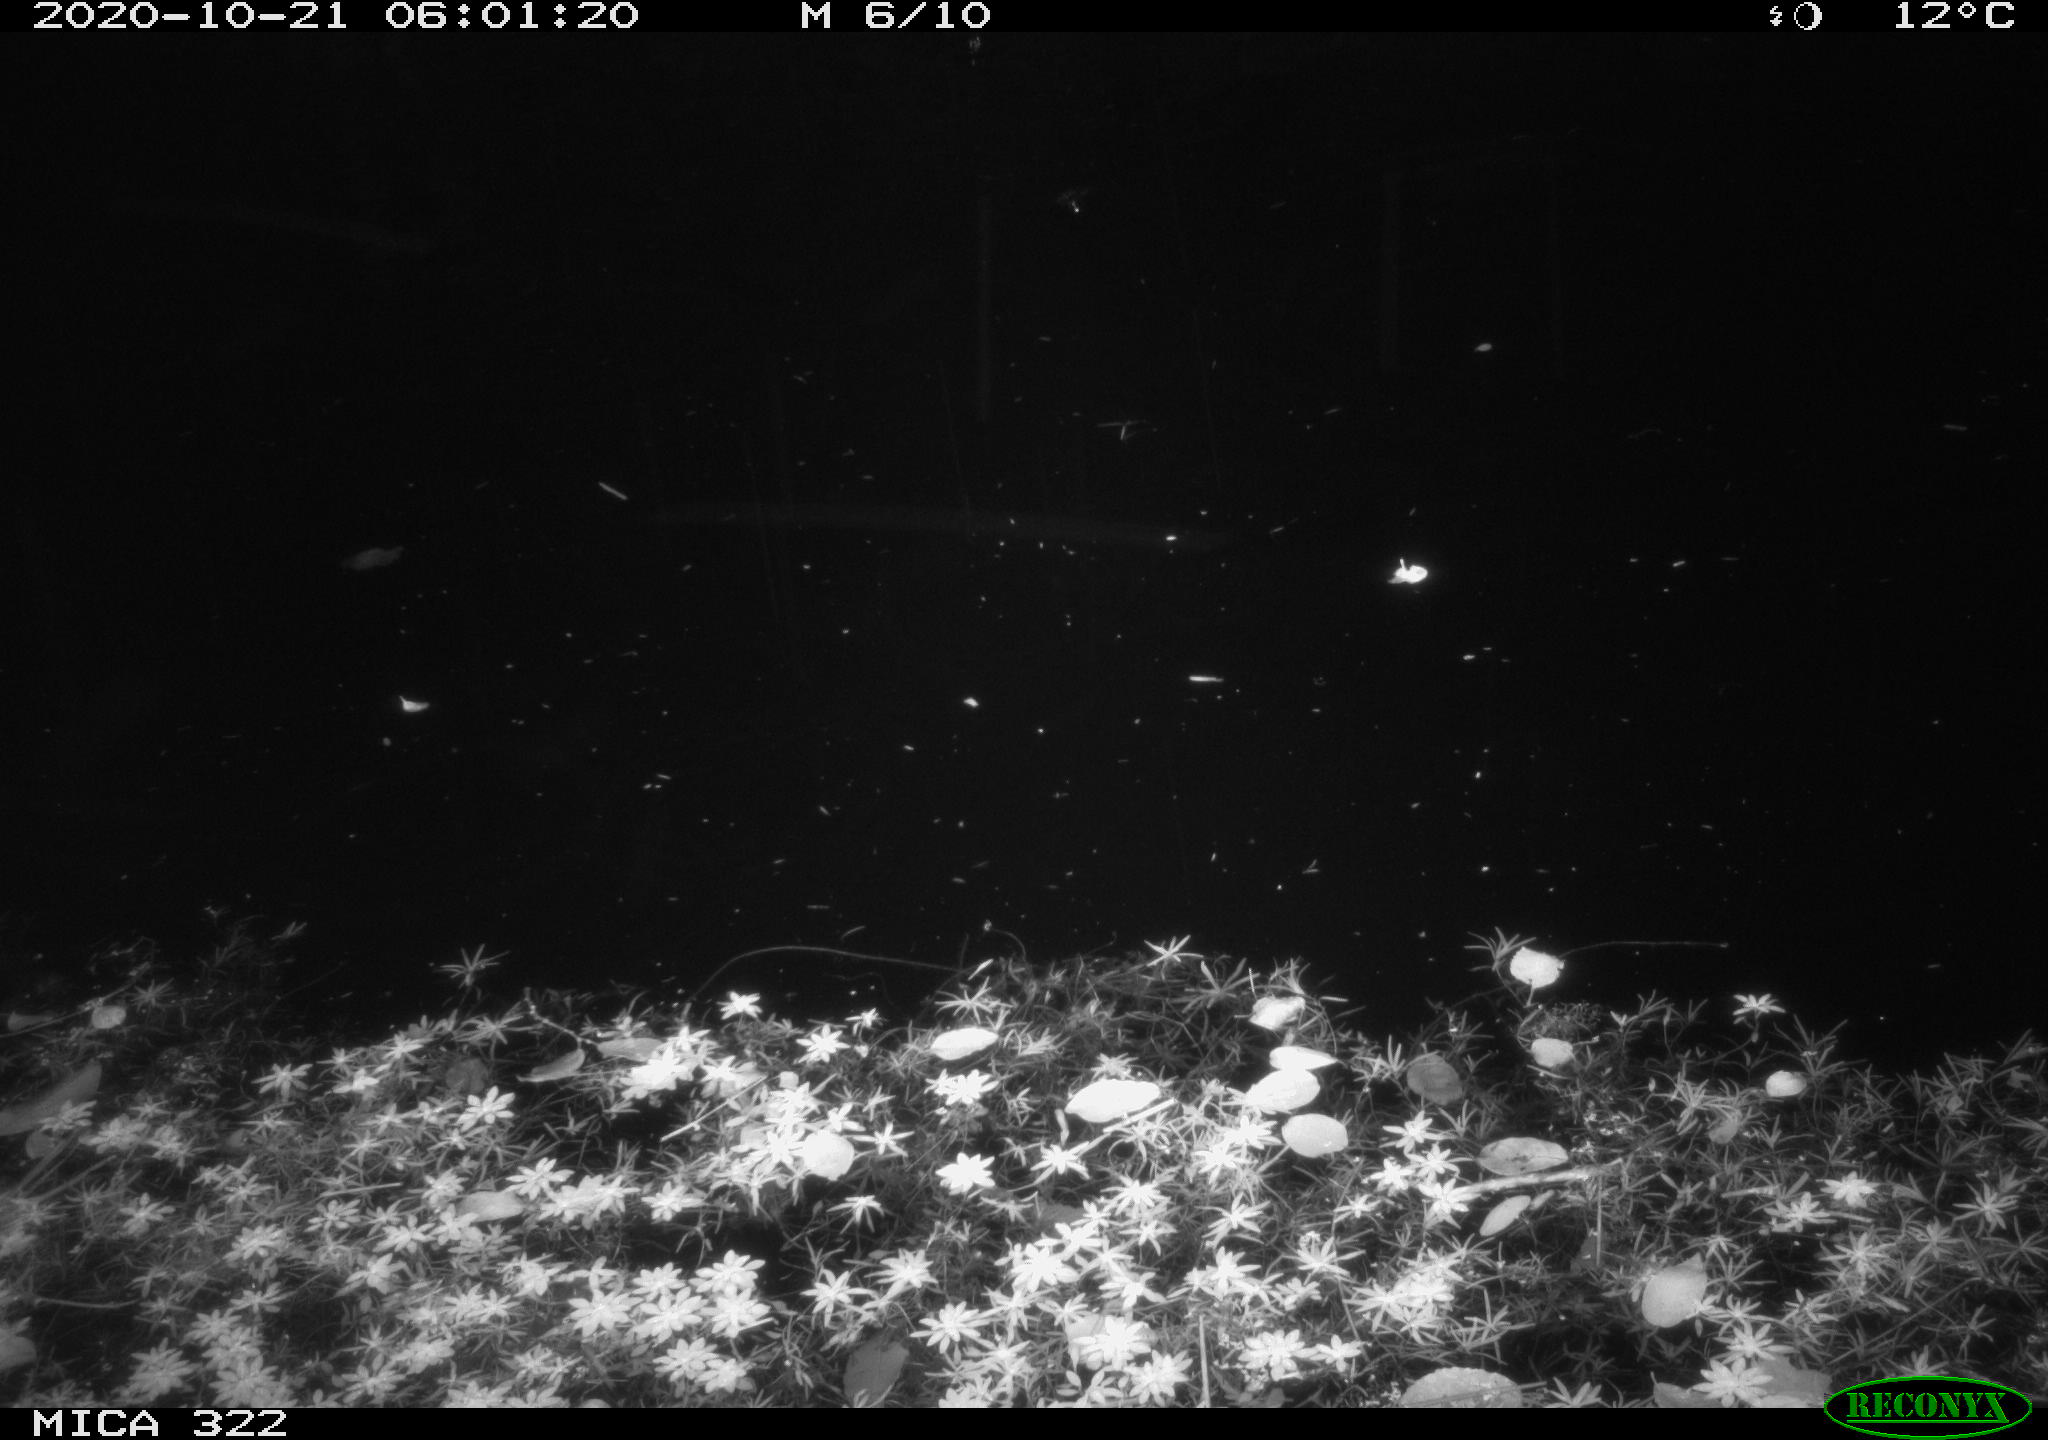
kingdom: Animalia
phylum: Chordata
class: Mammalia
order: Rodentia
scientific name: Rodentia
